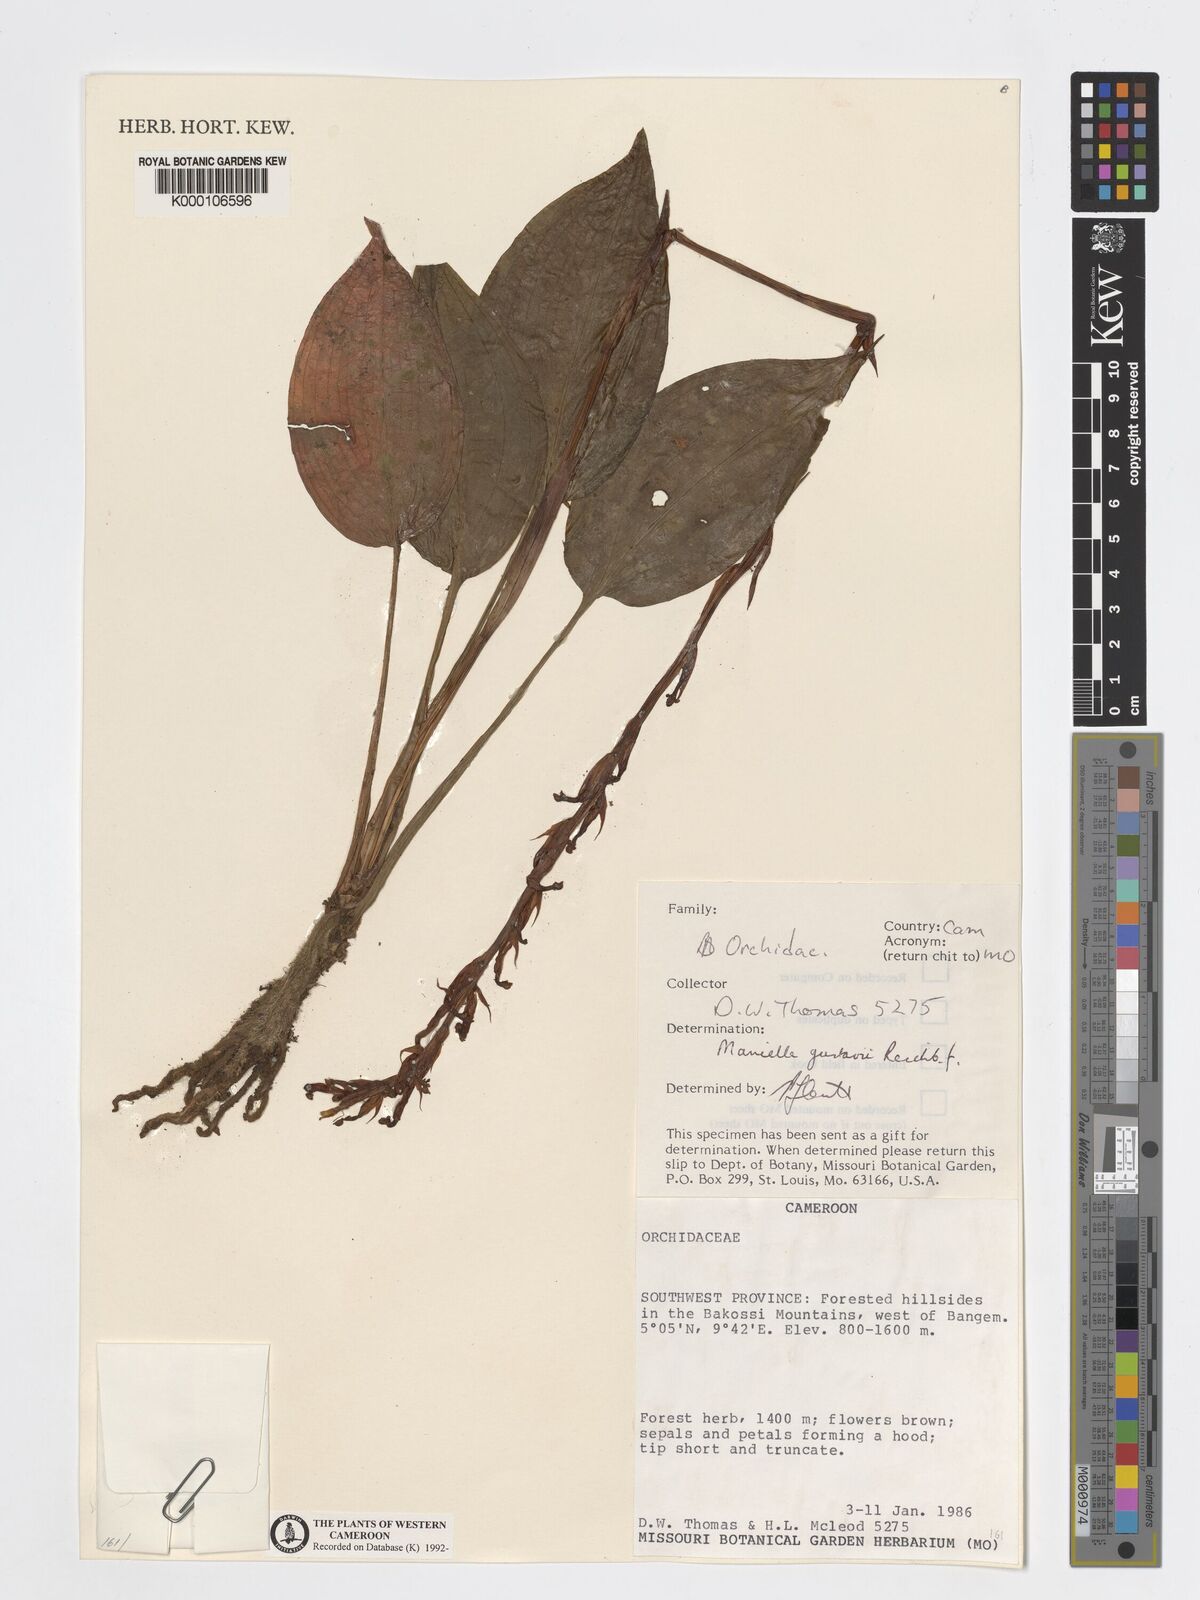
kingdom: Plantae
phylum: Tracheophyta
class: Liliopsida
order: Asparagales
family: Orchidaceae
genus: Manniella
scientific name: Manniella gustavi
